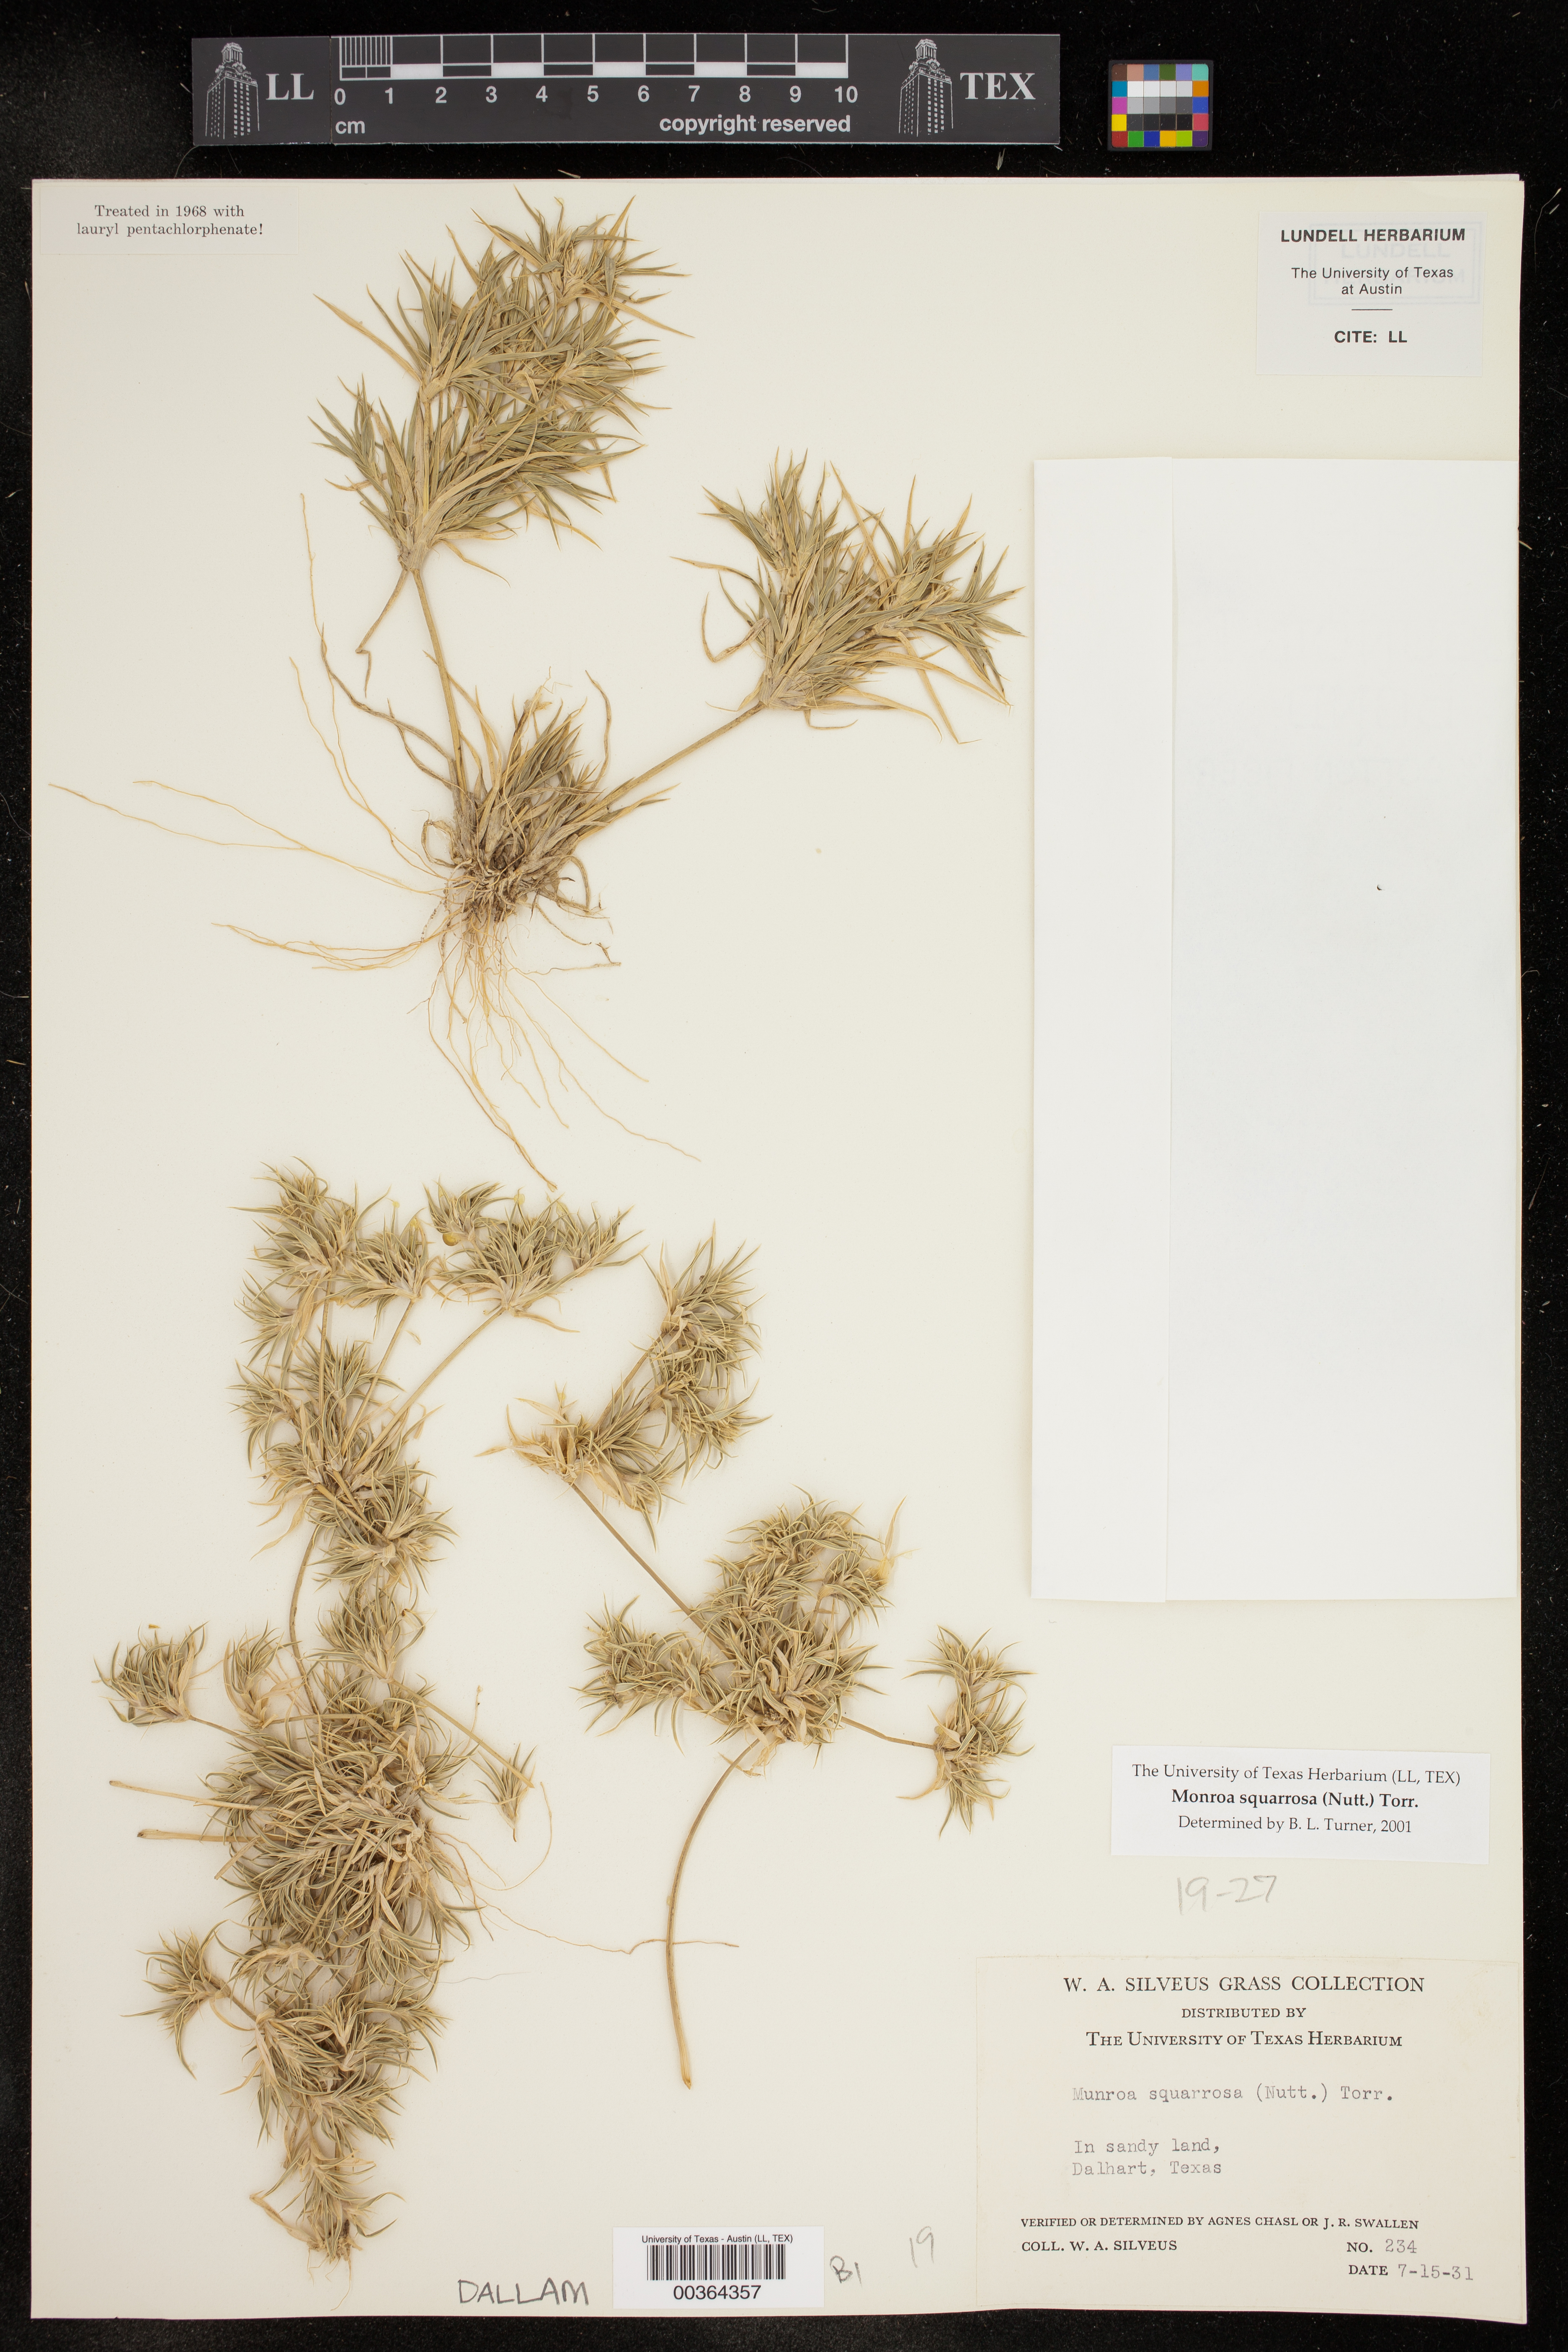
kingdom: Plantae
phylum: Tracheophyta
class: Liliopsida
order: Poales
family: Poaceae
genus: Munroa
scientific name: Munroa squarrosa
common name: False buffalo grass
